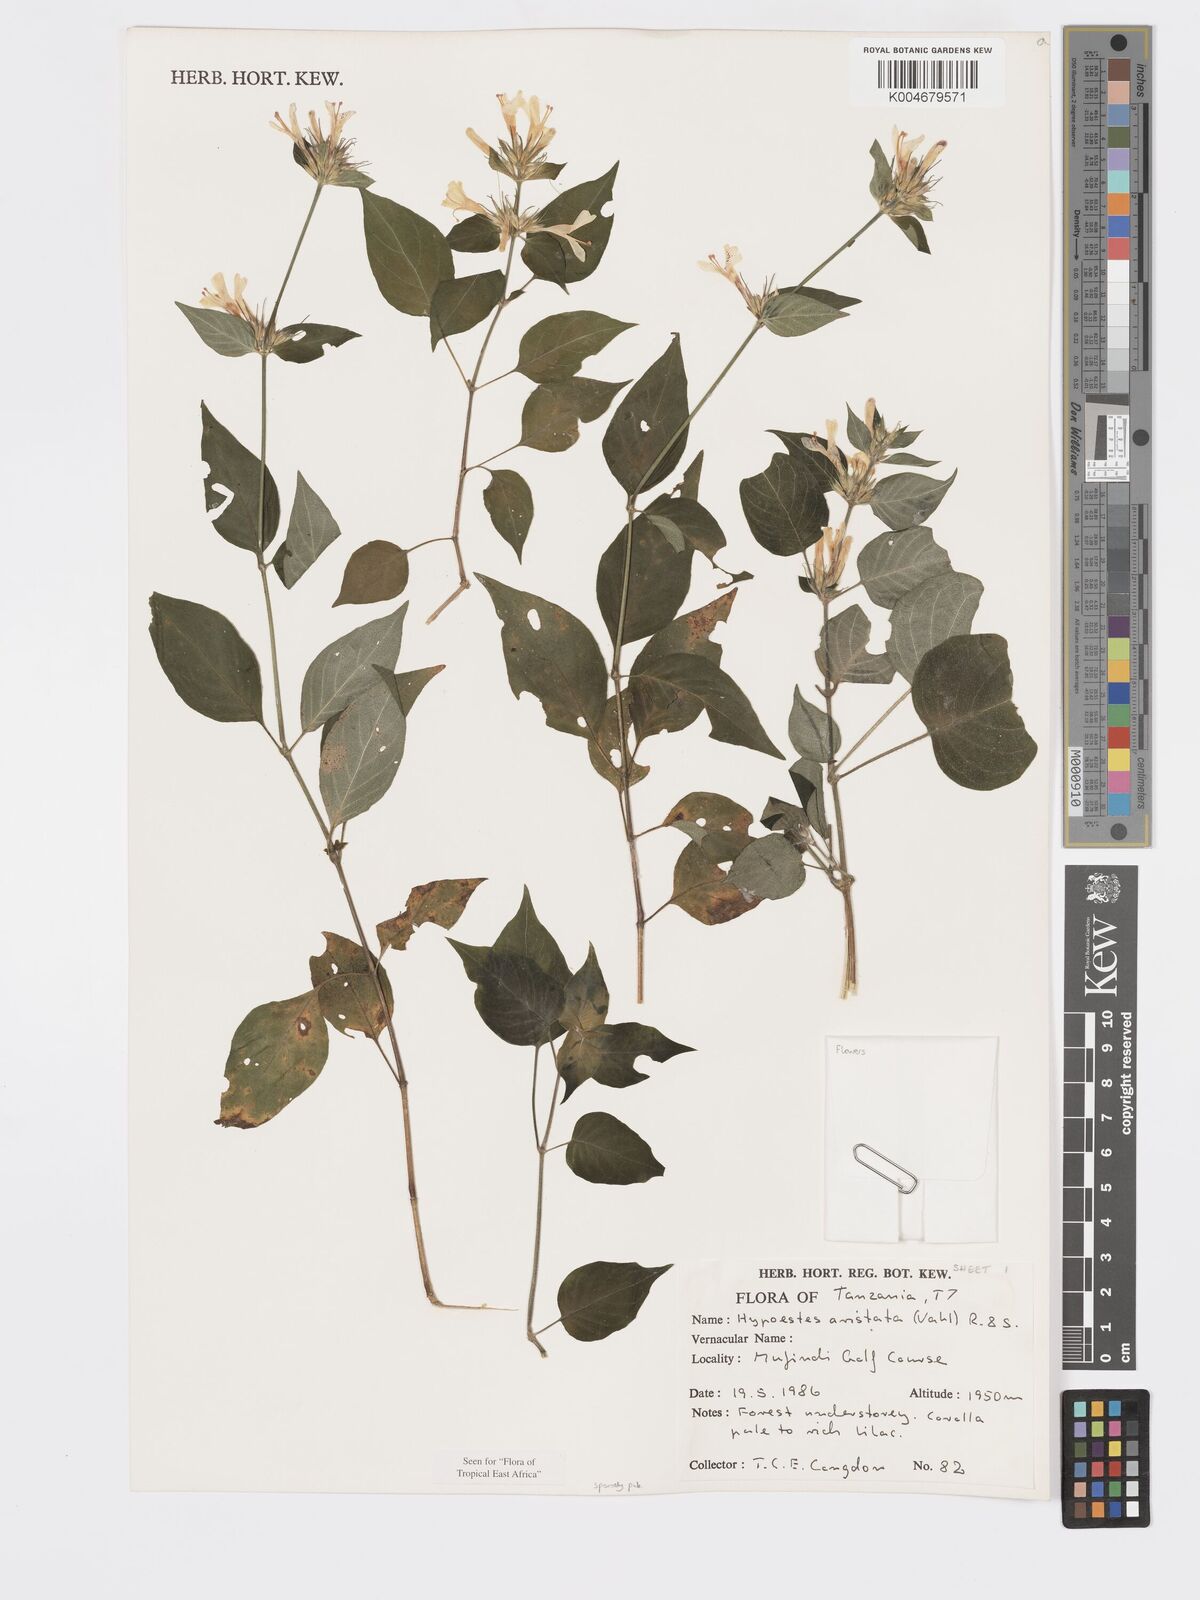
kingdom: Plantae
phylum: Tracheophyta
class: Magnoliopsida
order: Lamiales
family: Acanthaceae
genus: Hypoestes
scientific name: Hypoestes aristata
